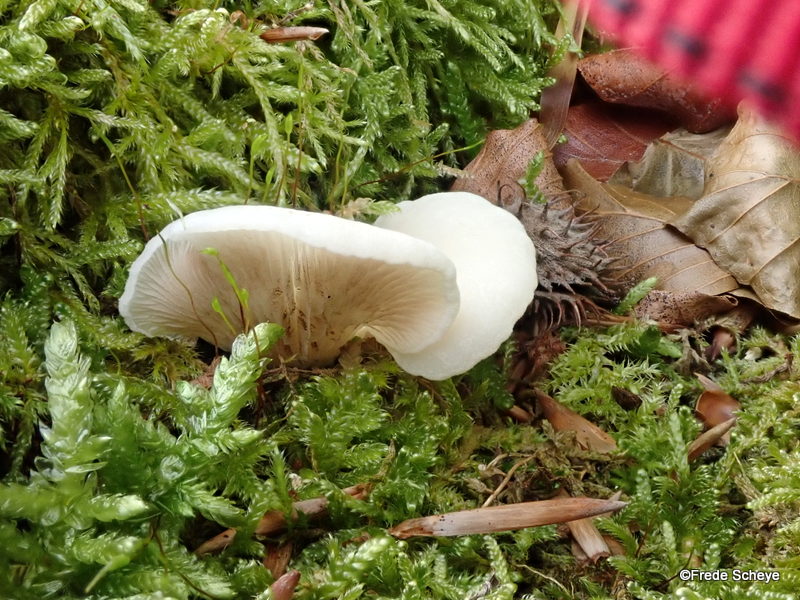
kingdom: Fungi
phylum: Basidiomycota
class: Agaricomycetes
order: Agaricales
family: Crepidotaceae
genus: Crepidotus
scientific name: Crepidotus mollis
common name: blød muslingesvamp
